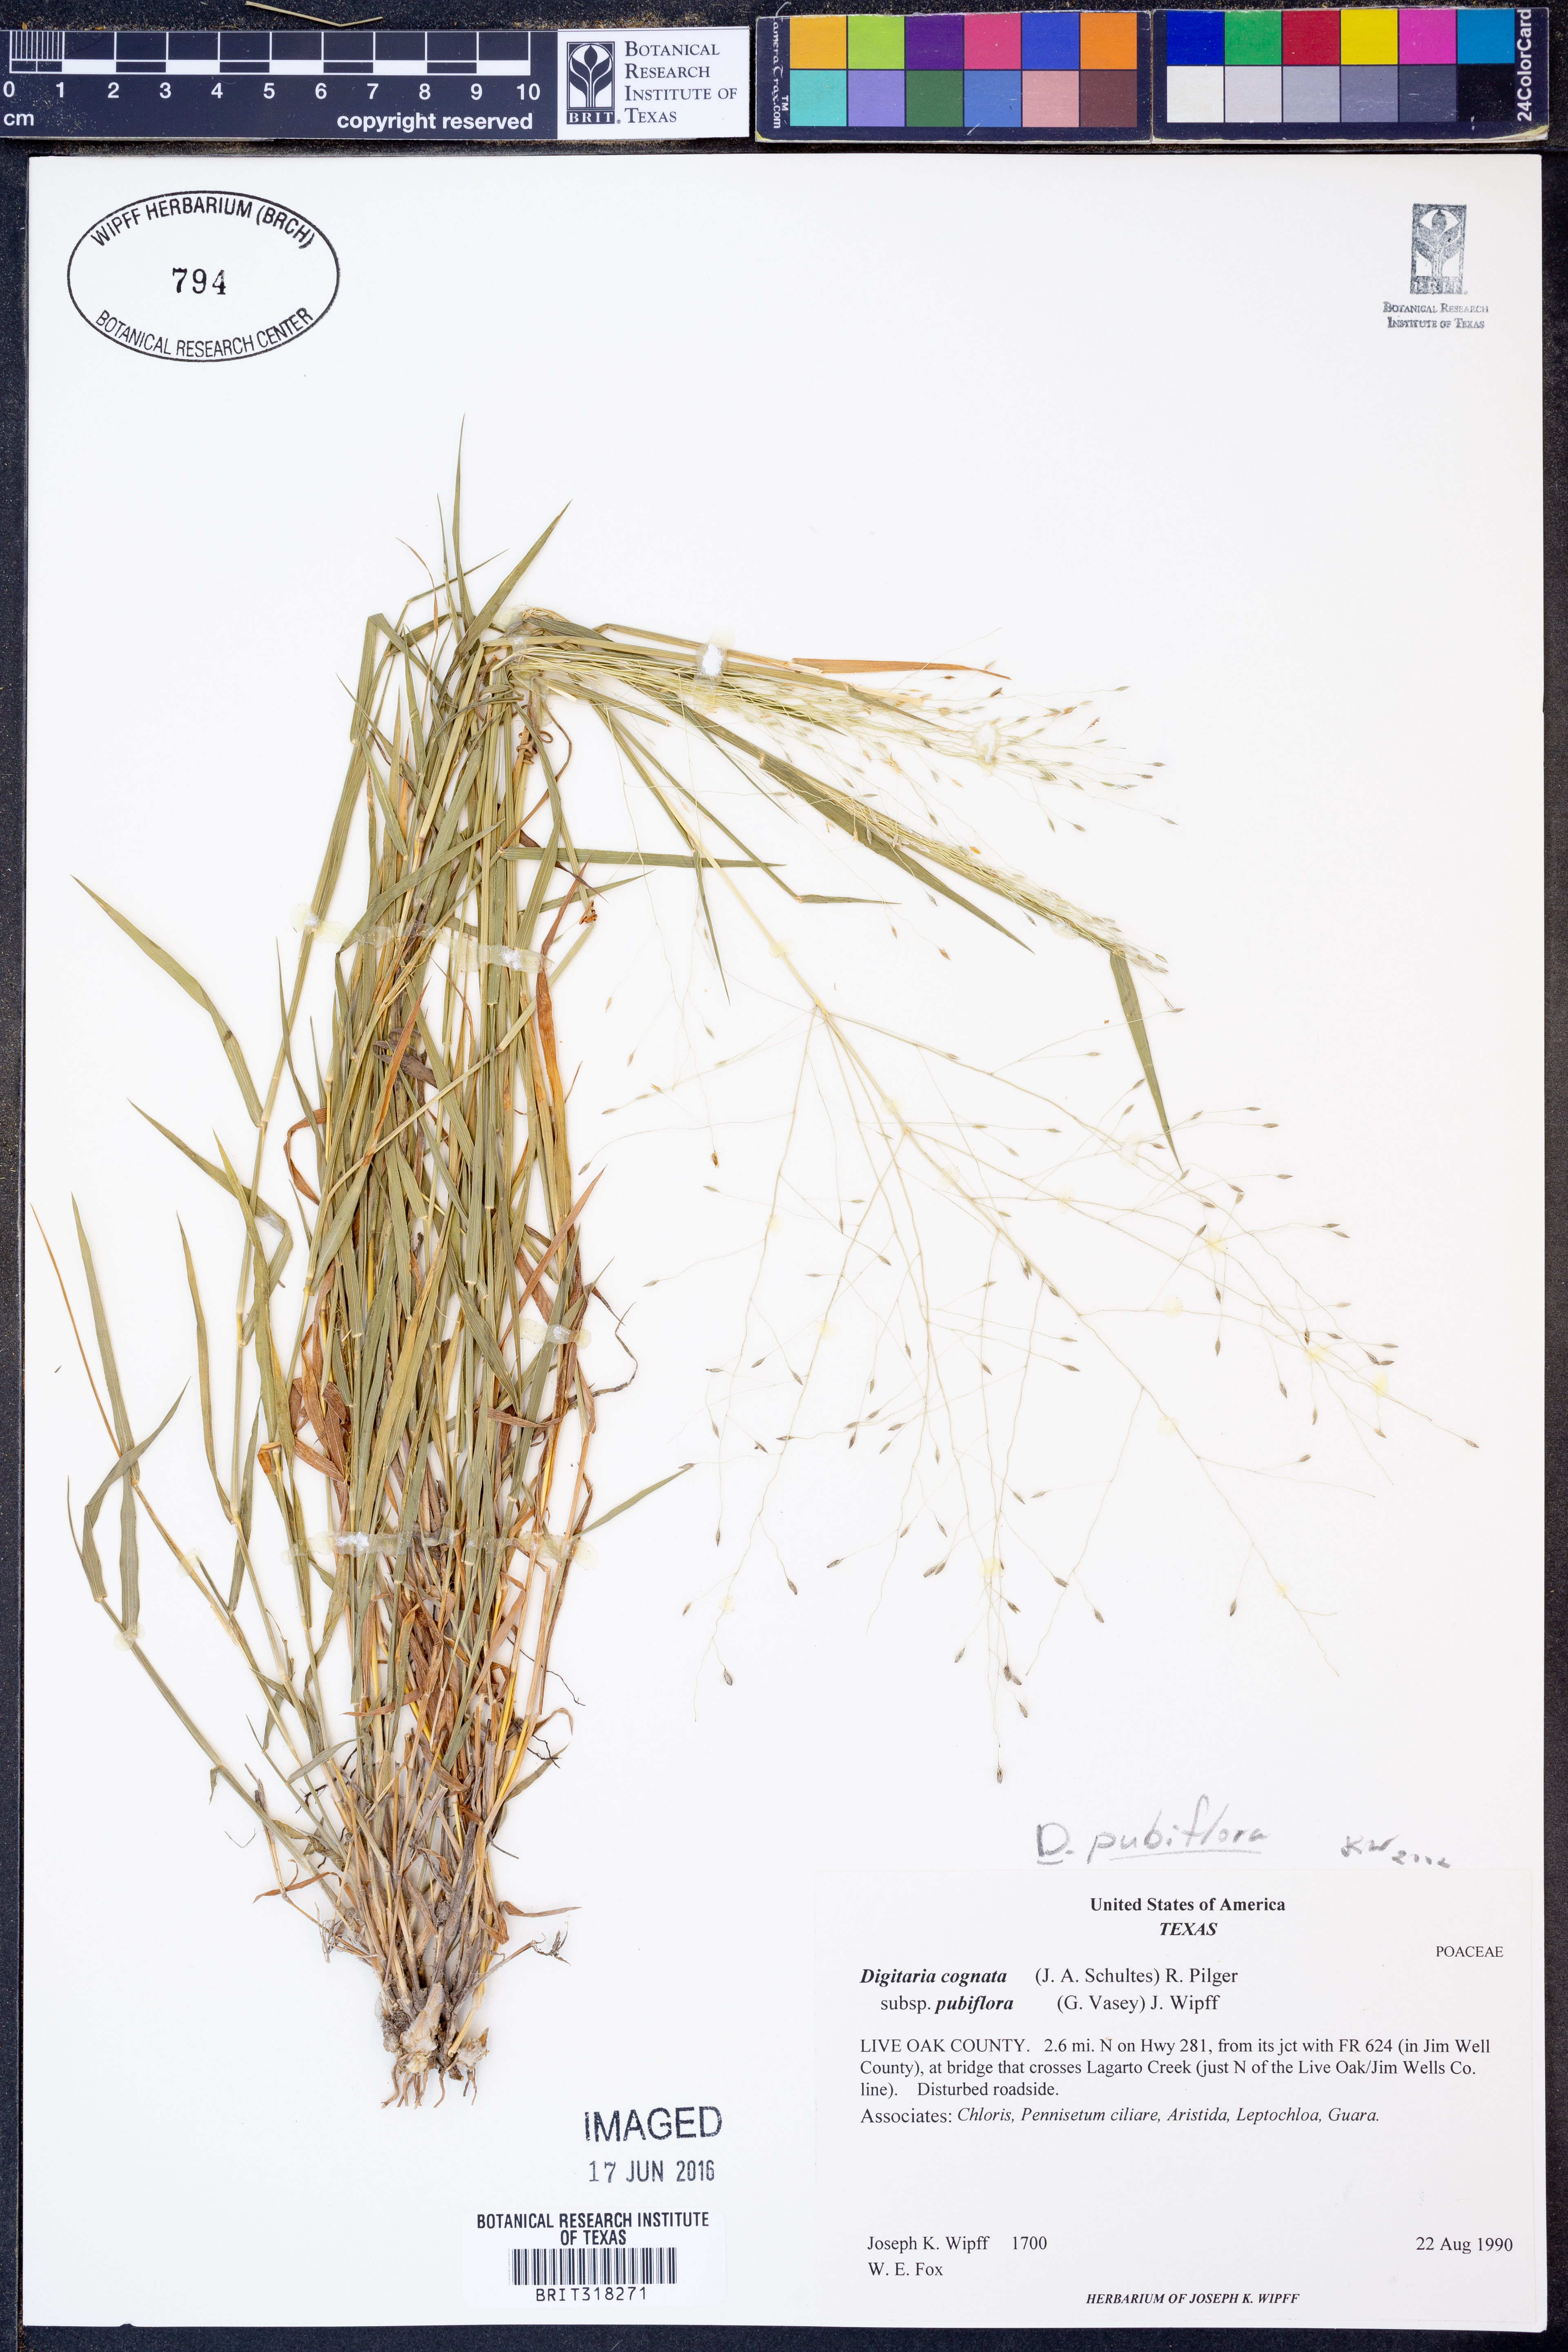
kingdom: Plantae
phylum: Tracheophyta
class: Liliopsida
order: Poales
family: Poaceae
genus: Digitaria
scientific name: Digitaria pubiflora
